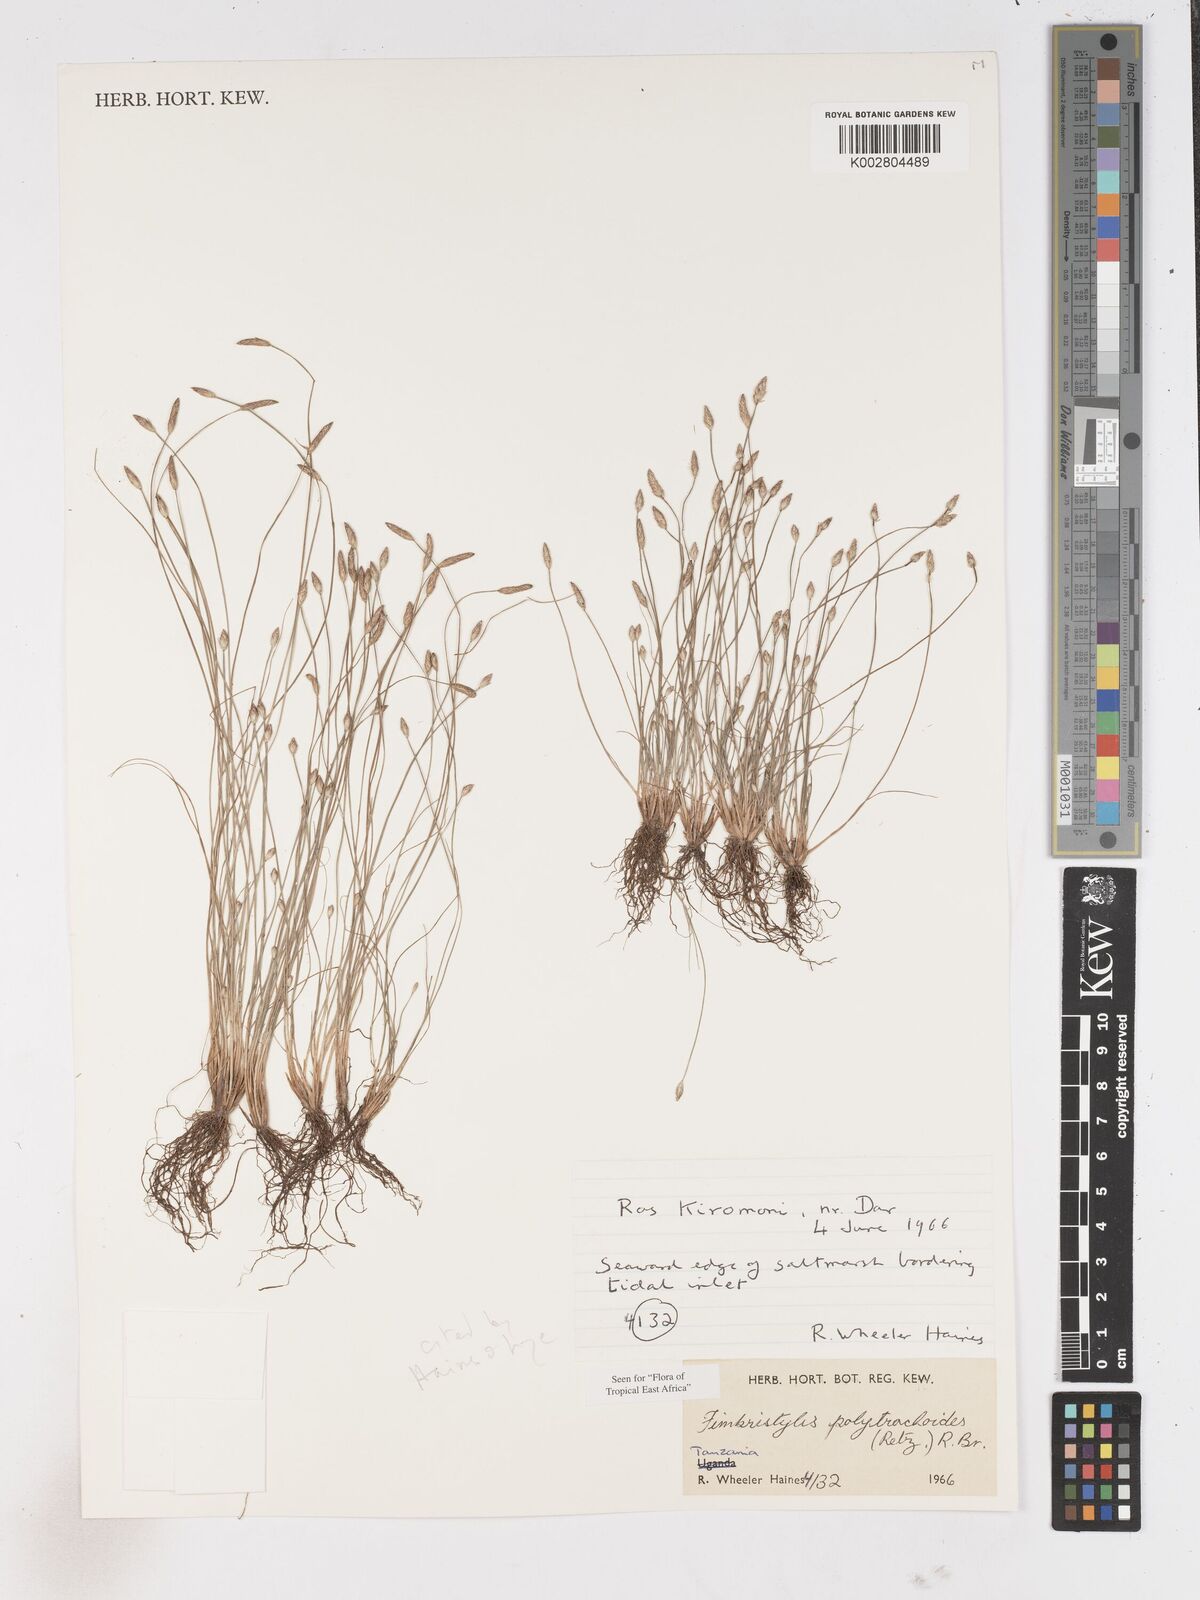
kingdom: Plantae
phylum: Tracheophyta
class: Liliopsida
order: Poales
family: Cyperaceae
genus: Fimbristylis
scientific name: Fimbristylis polytrichoides
